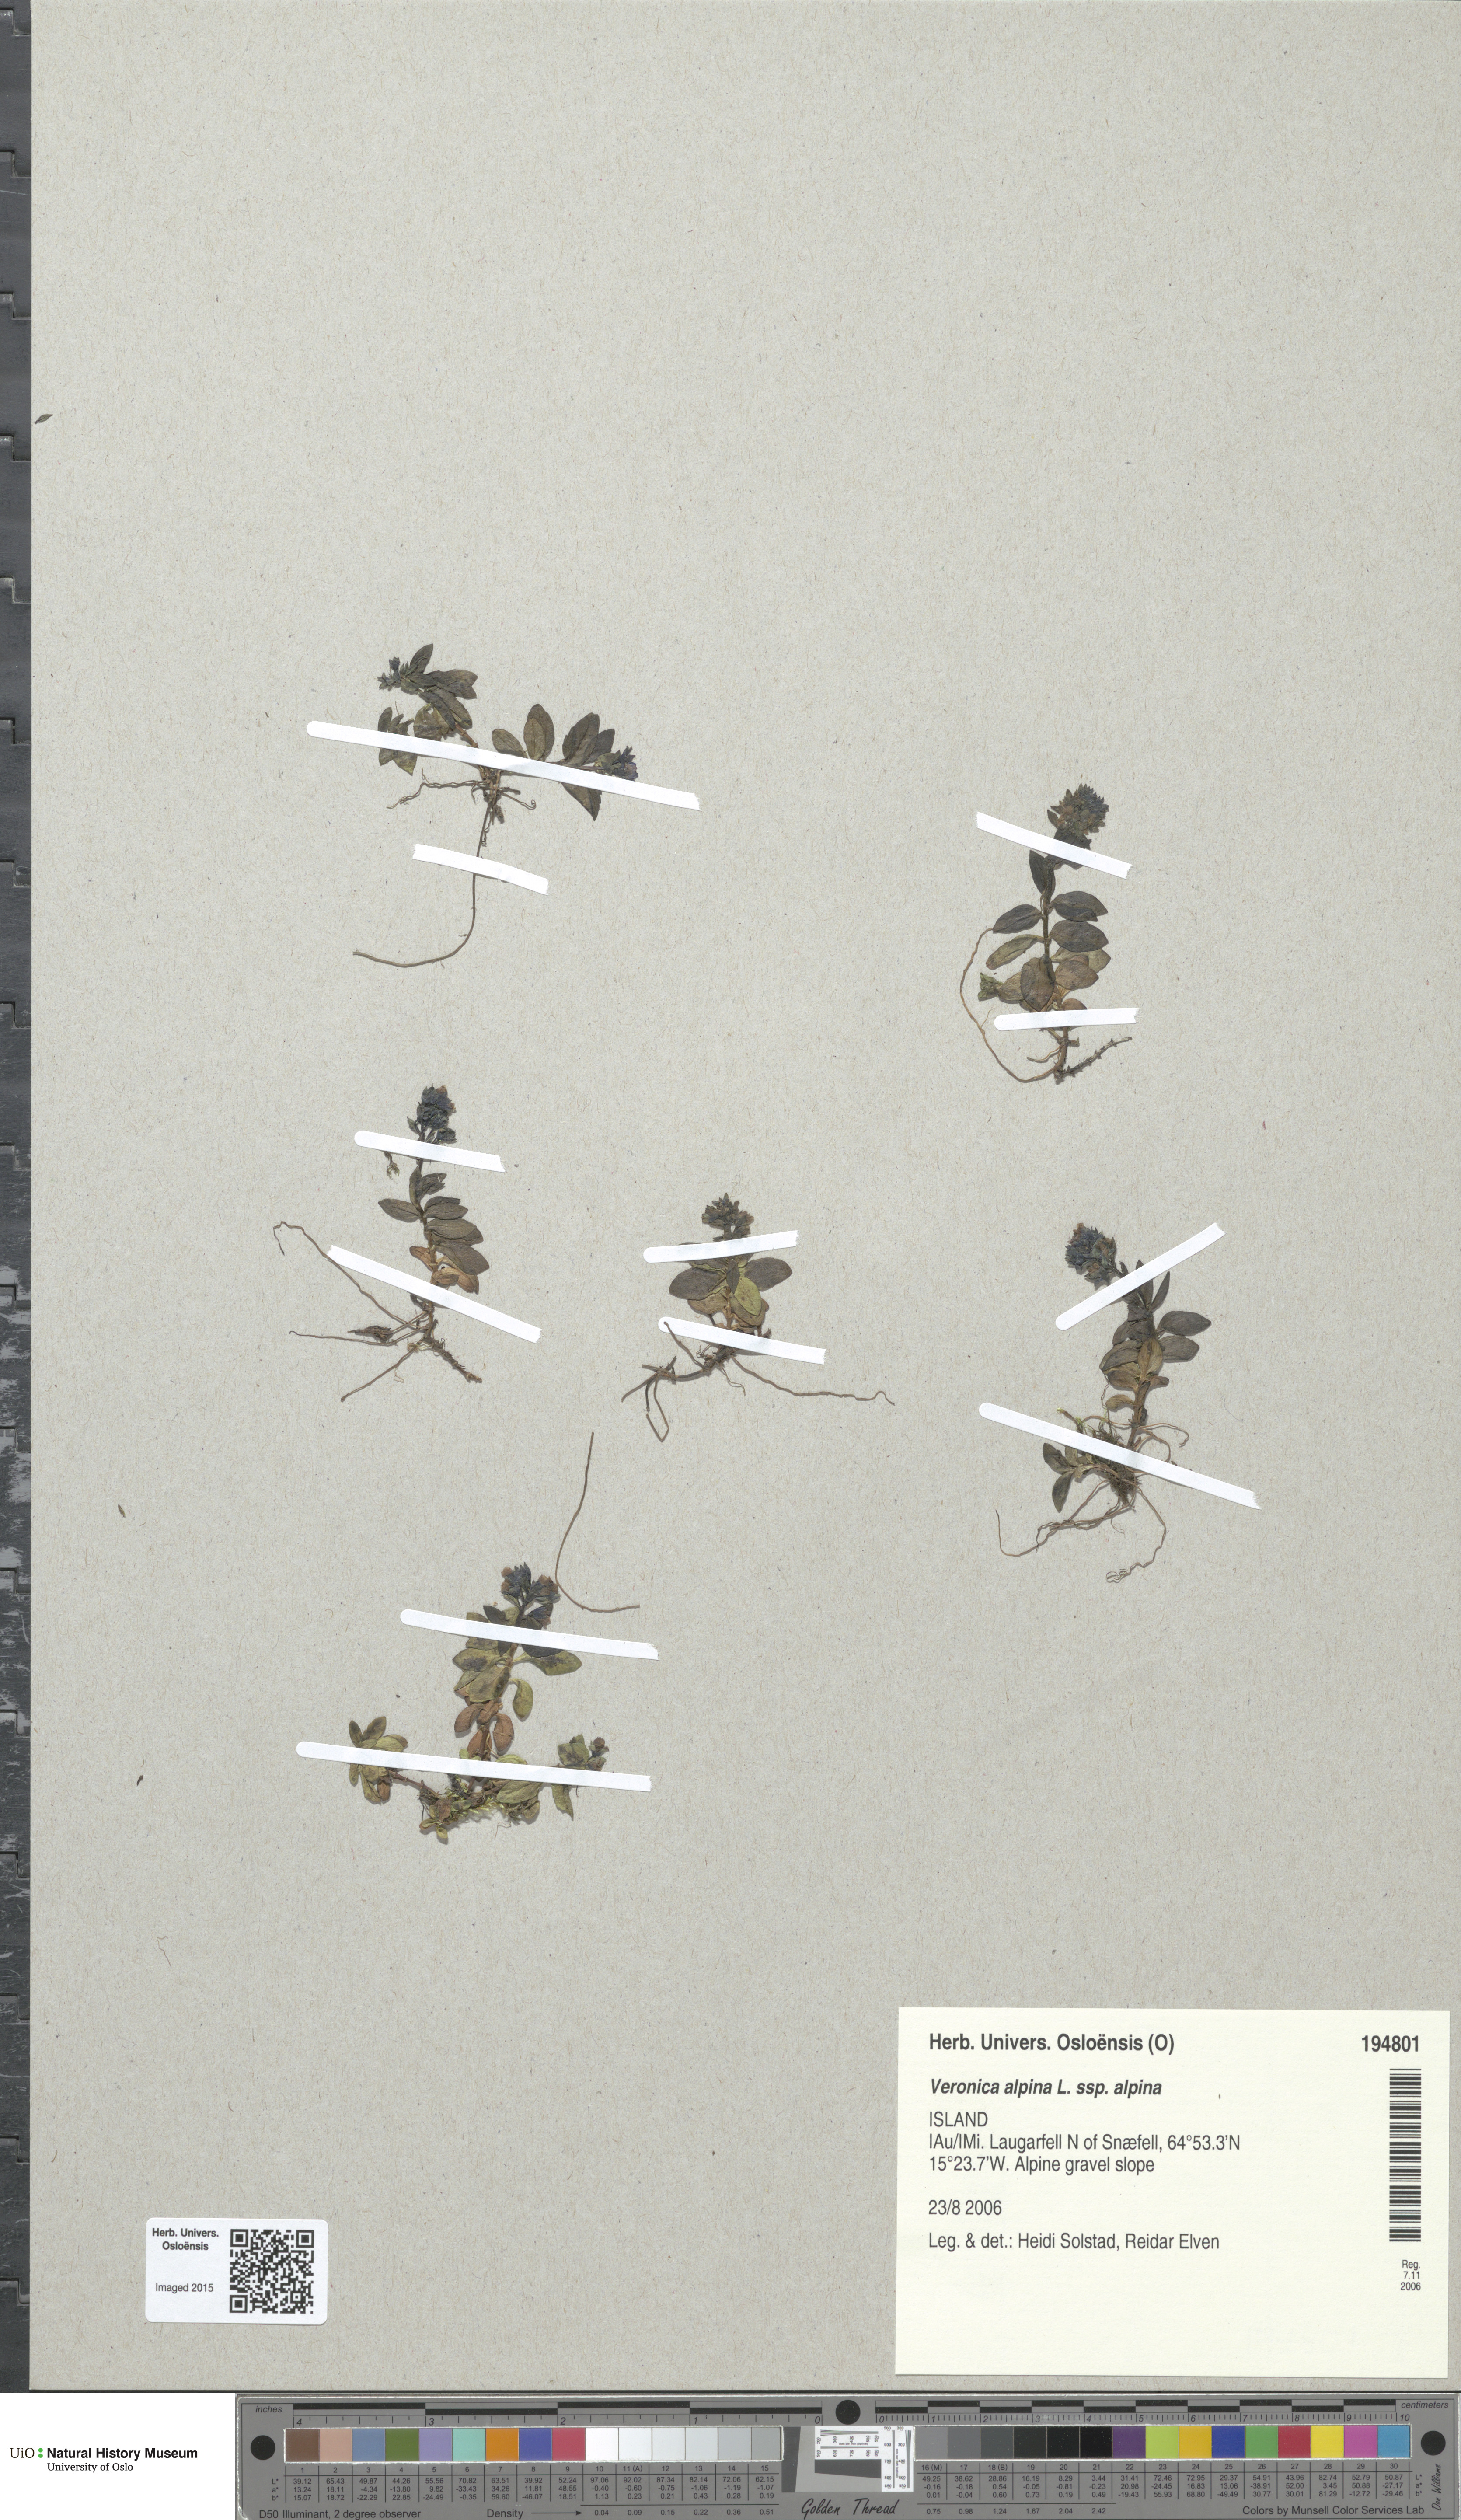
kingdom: Plantae
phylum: Tracheophyta
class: Magnoliopsida
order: Lamiales
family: Plantaginaceae
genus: Veronica
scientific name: Veronica alpina
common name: Alpine speedwell
